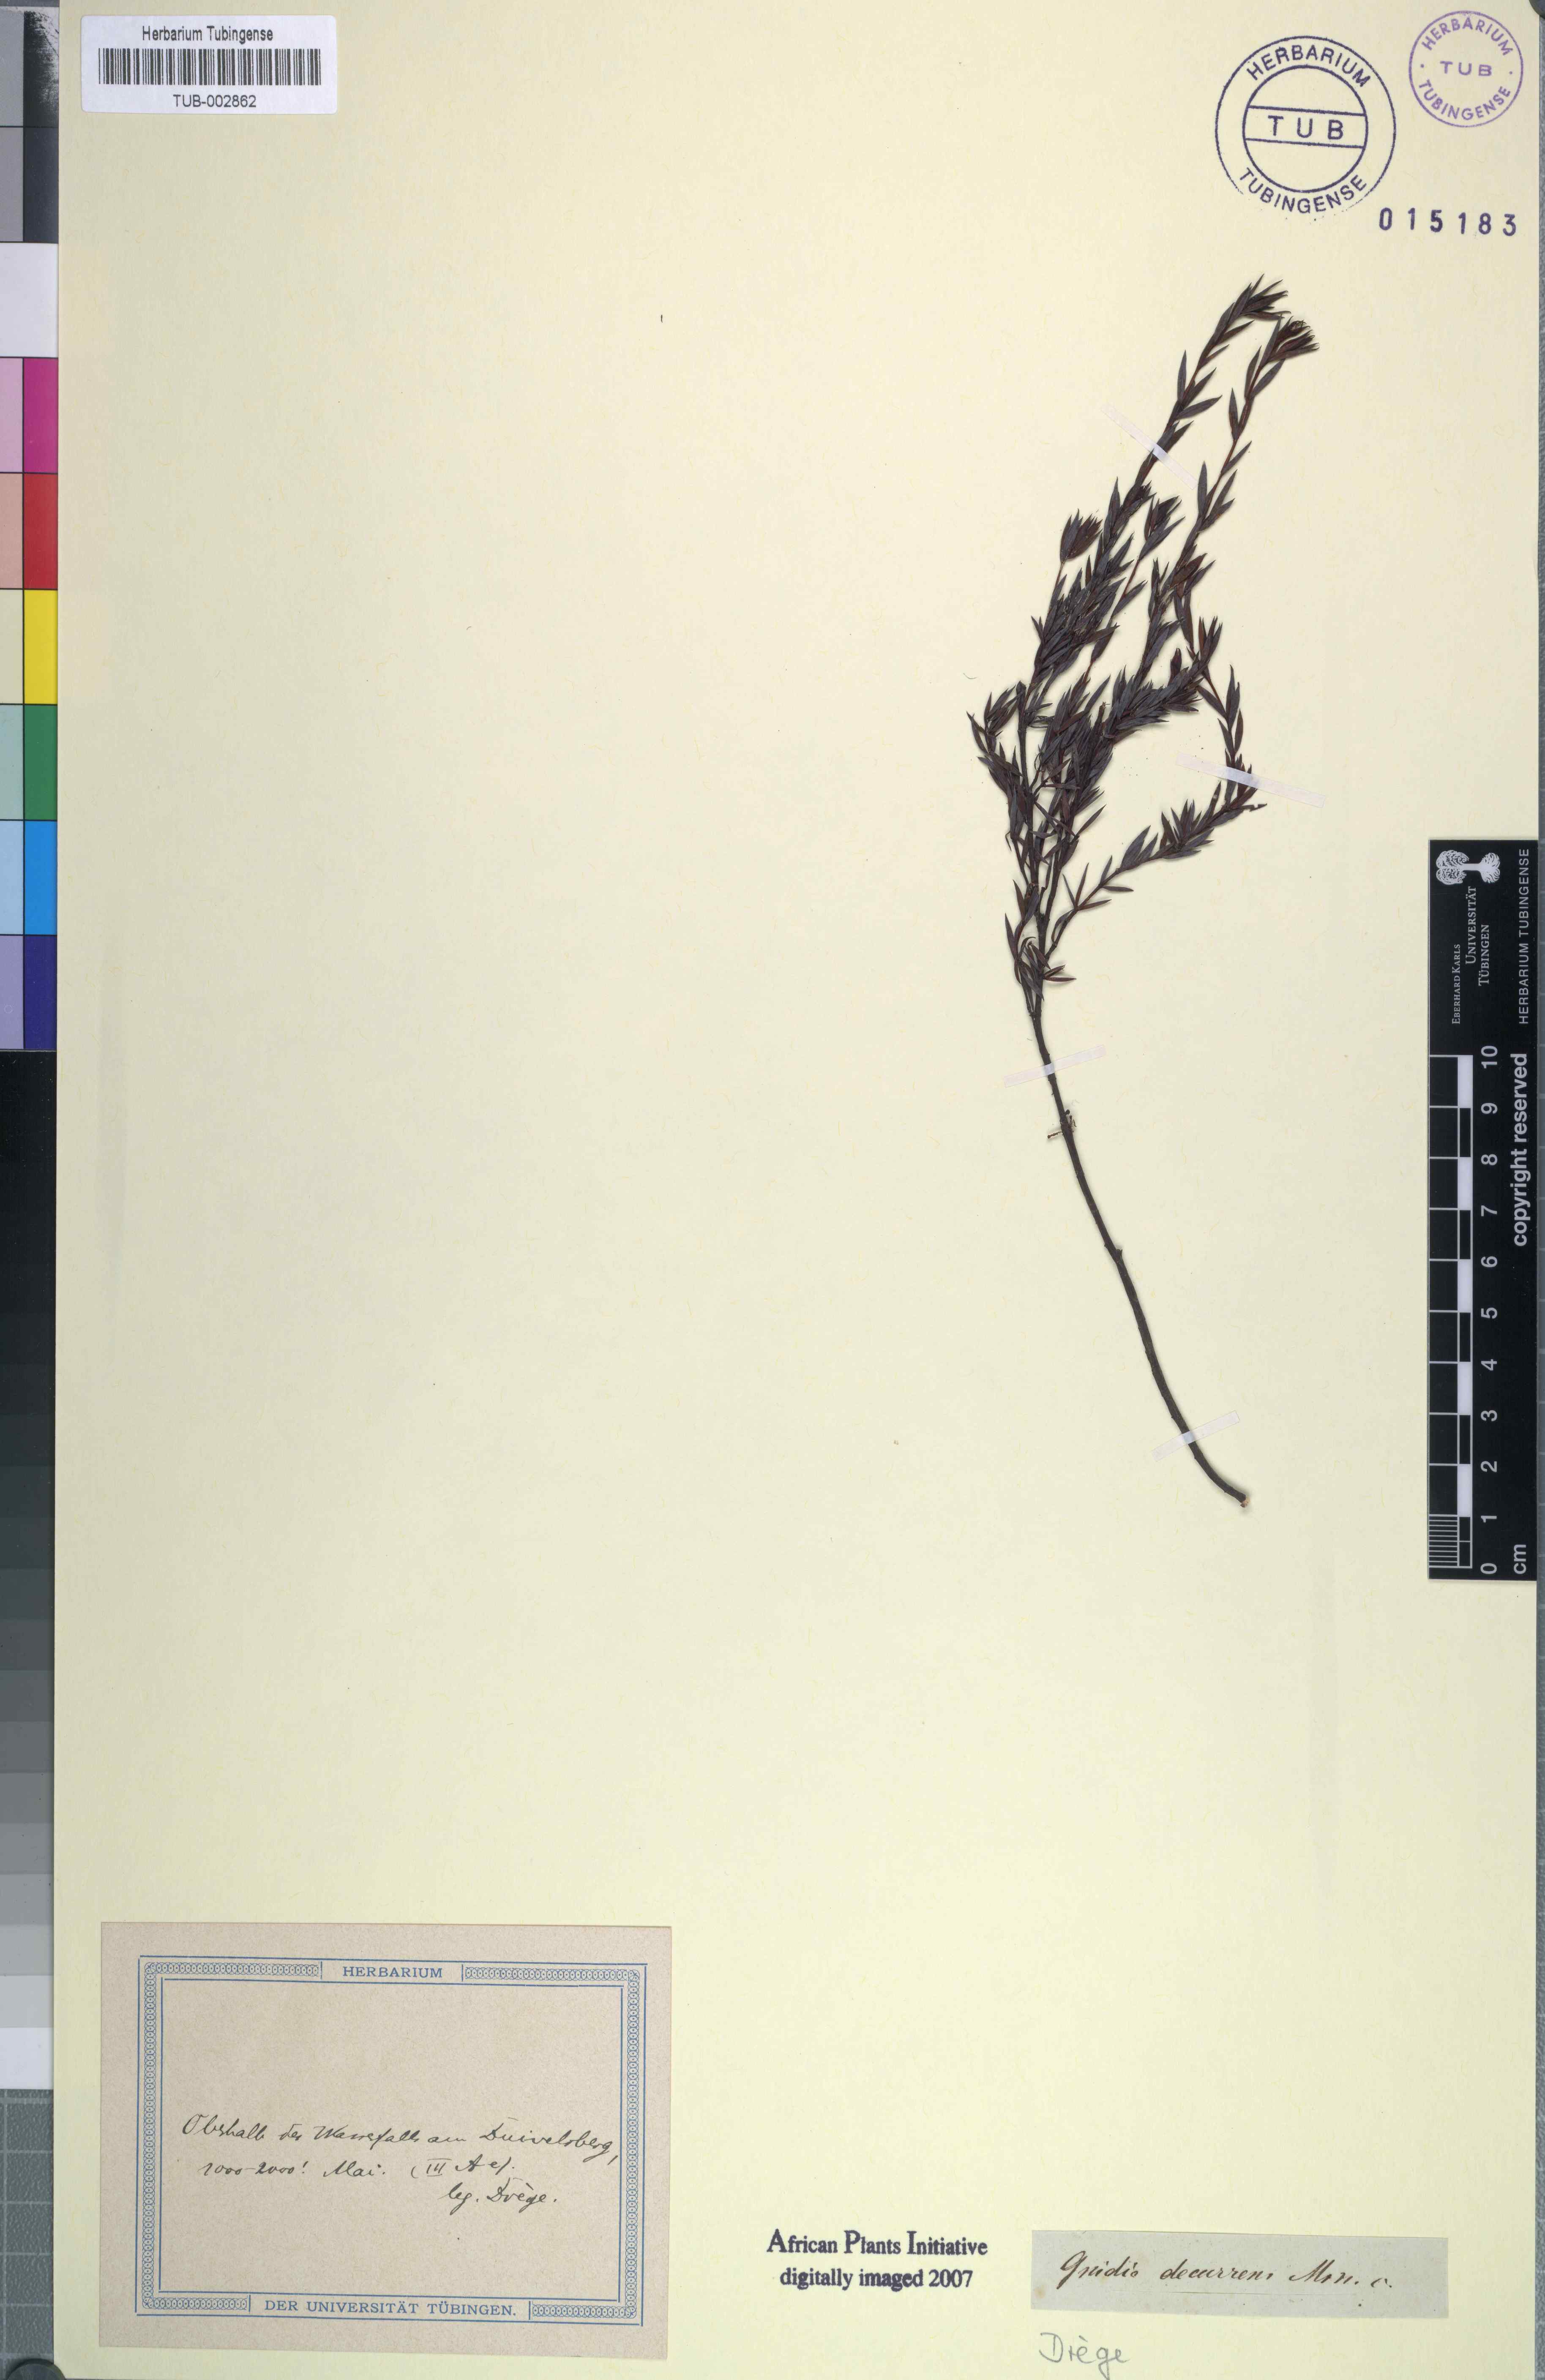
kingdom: Plantae
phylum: Tracheophyta
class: Magnoliopsida
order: Malvales
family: Thymelaeaceae
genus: Gnidia
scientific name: Gnidia decurrens
